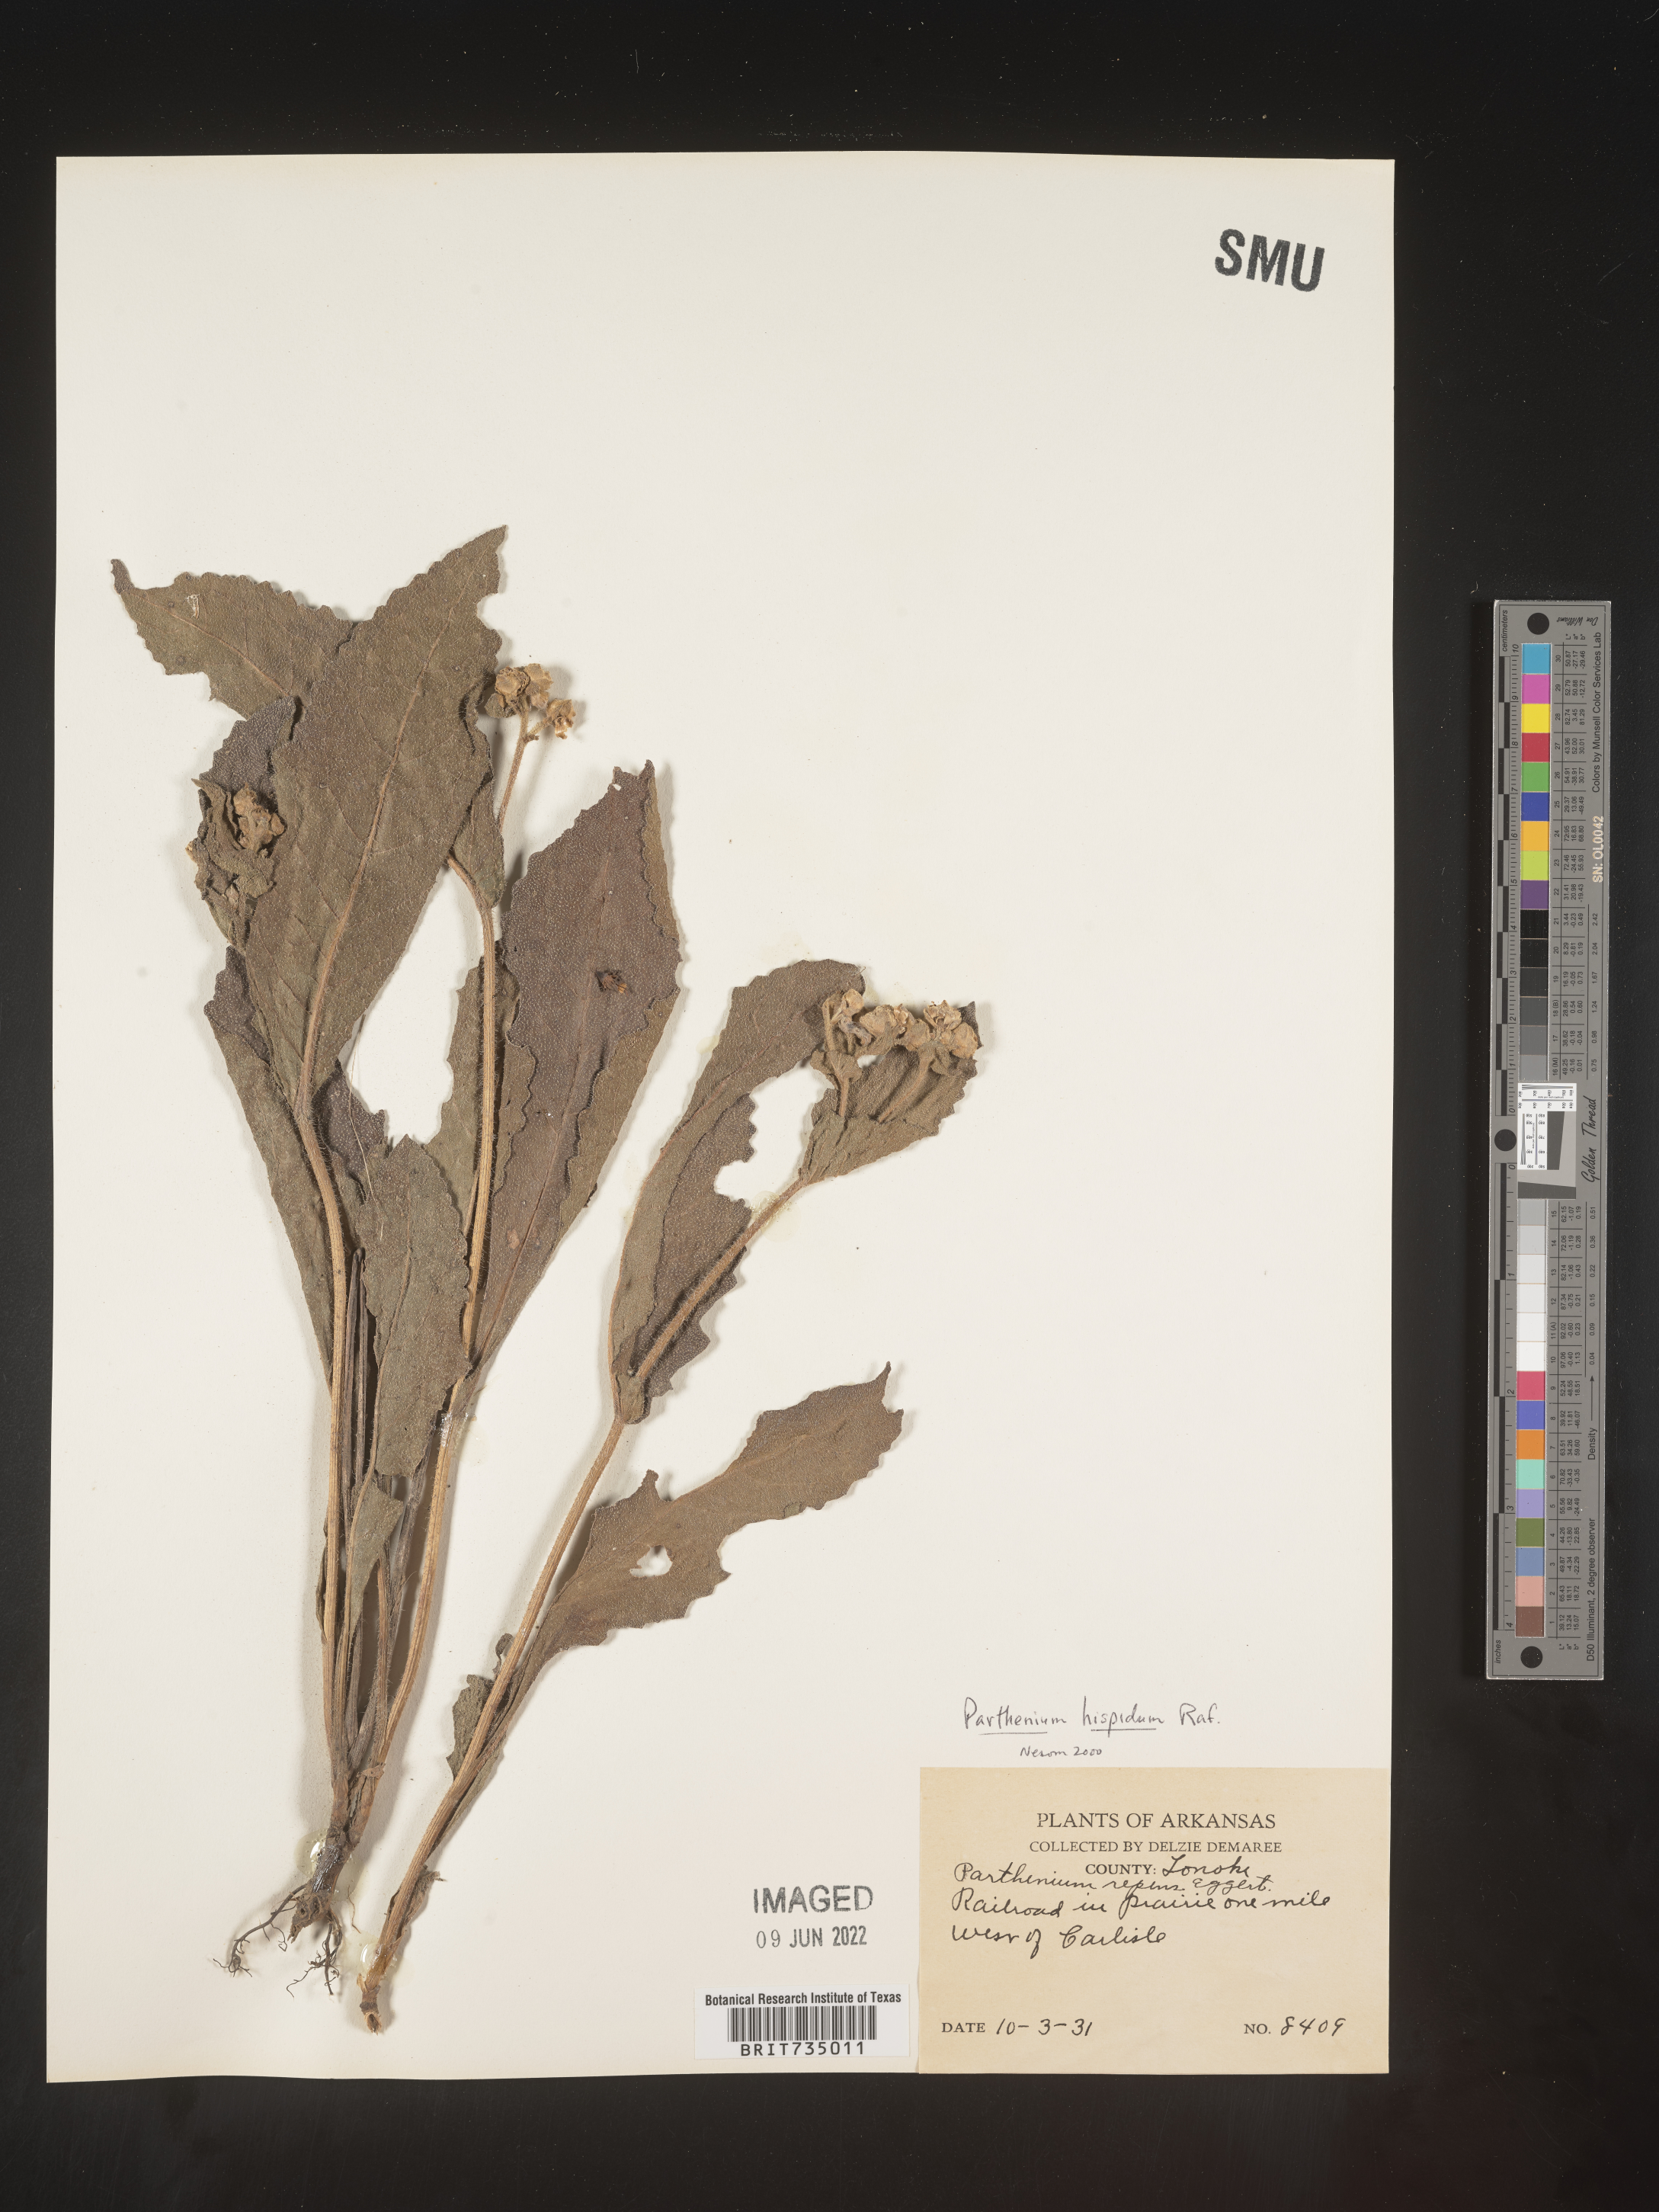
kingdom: Plantae
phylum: Tracheophyta
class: Magnoliopsida
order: Asterales
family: Asteraceae
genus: Parthenium
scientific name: Parthenium hispidum
